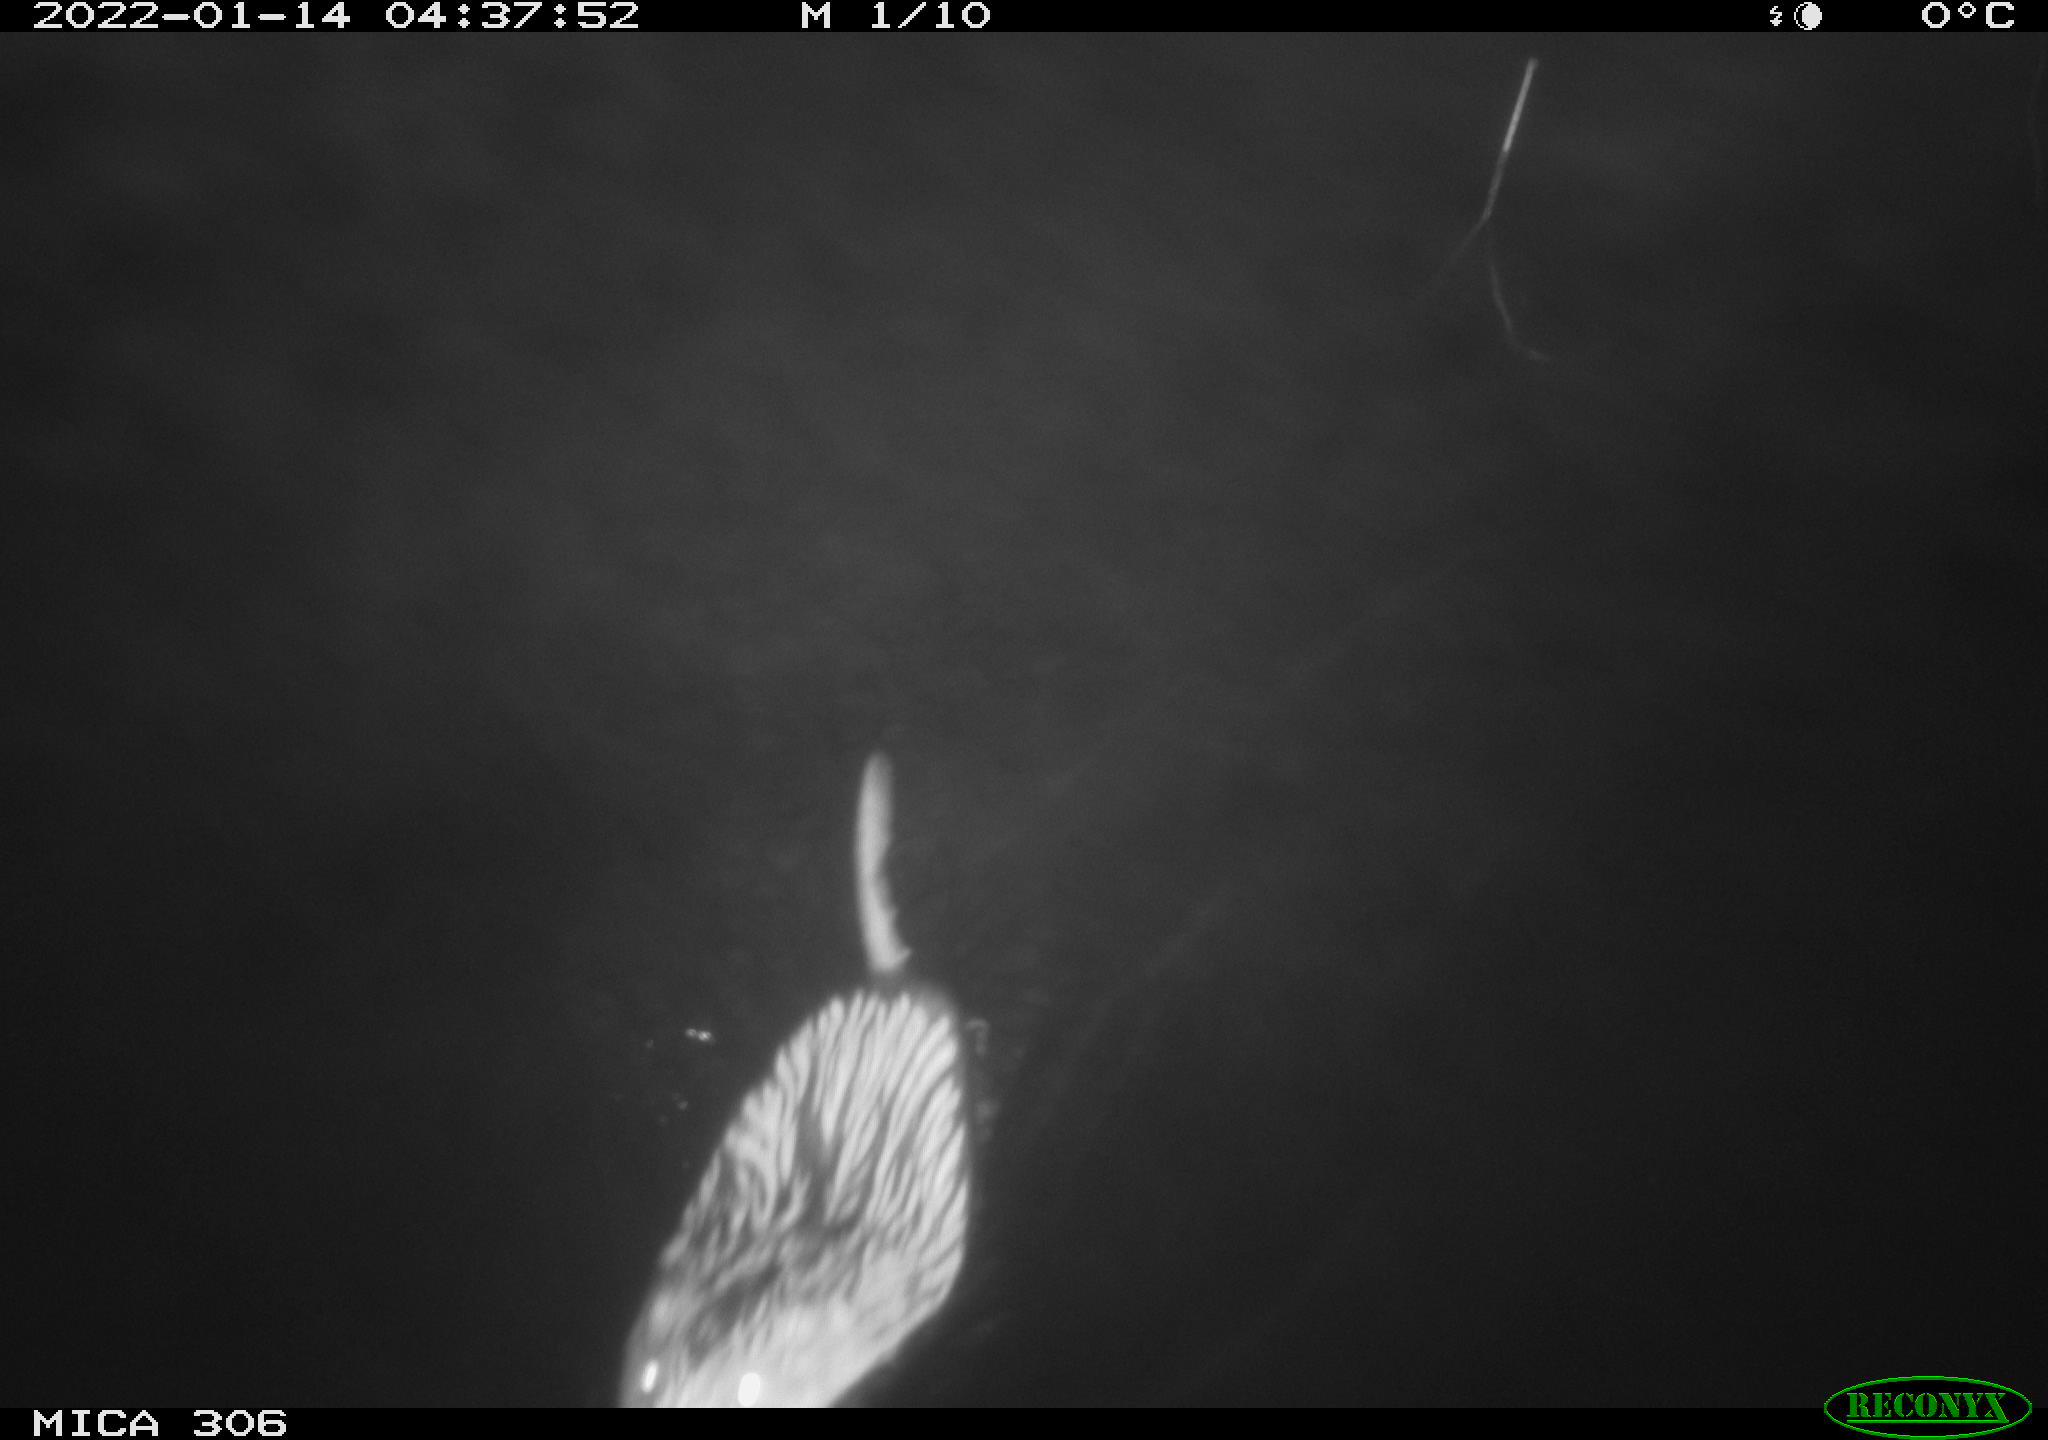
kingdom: Animalia
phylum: Chordata
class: Mammalia
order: Rodentia
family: Cricetidae
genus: Ondatra
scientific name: Ondatra zibethicus
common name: Muskrat
